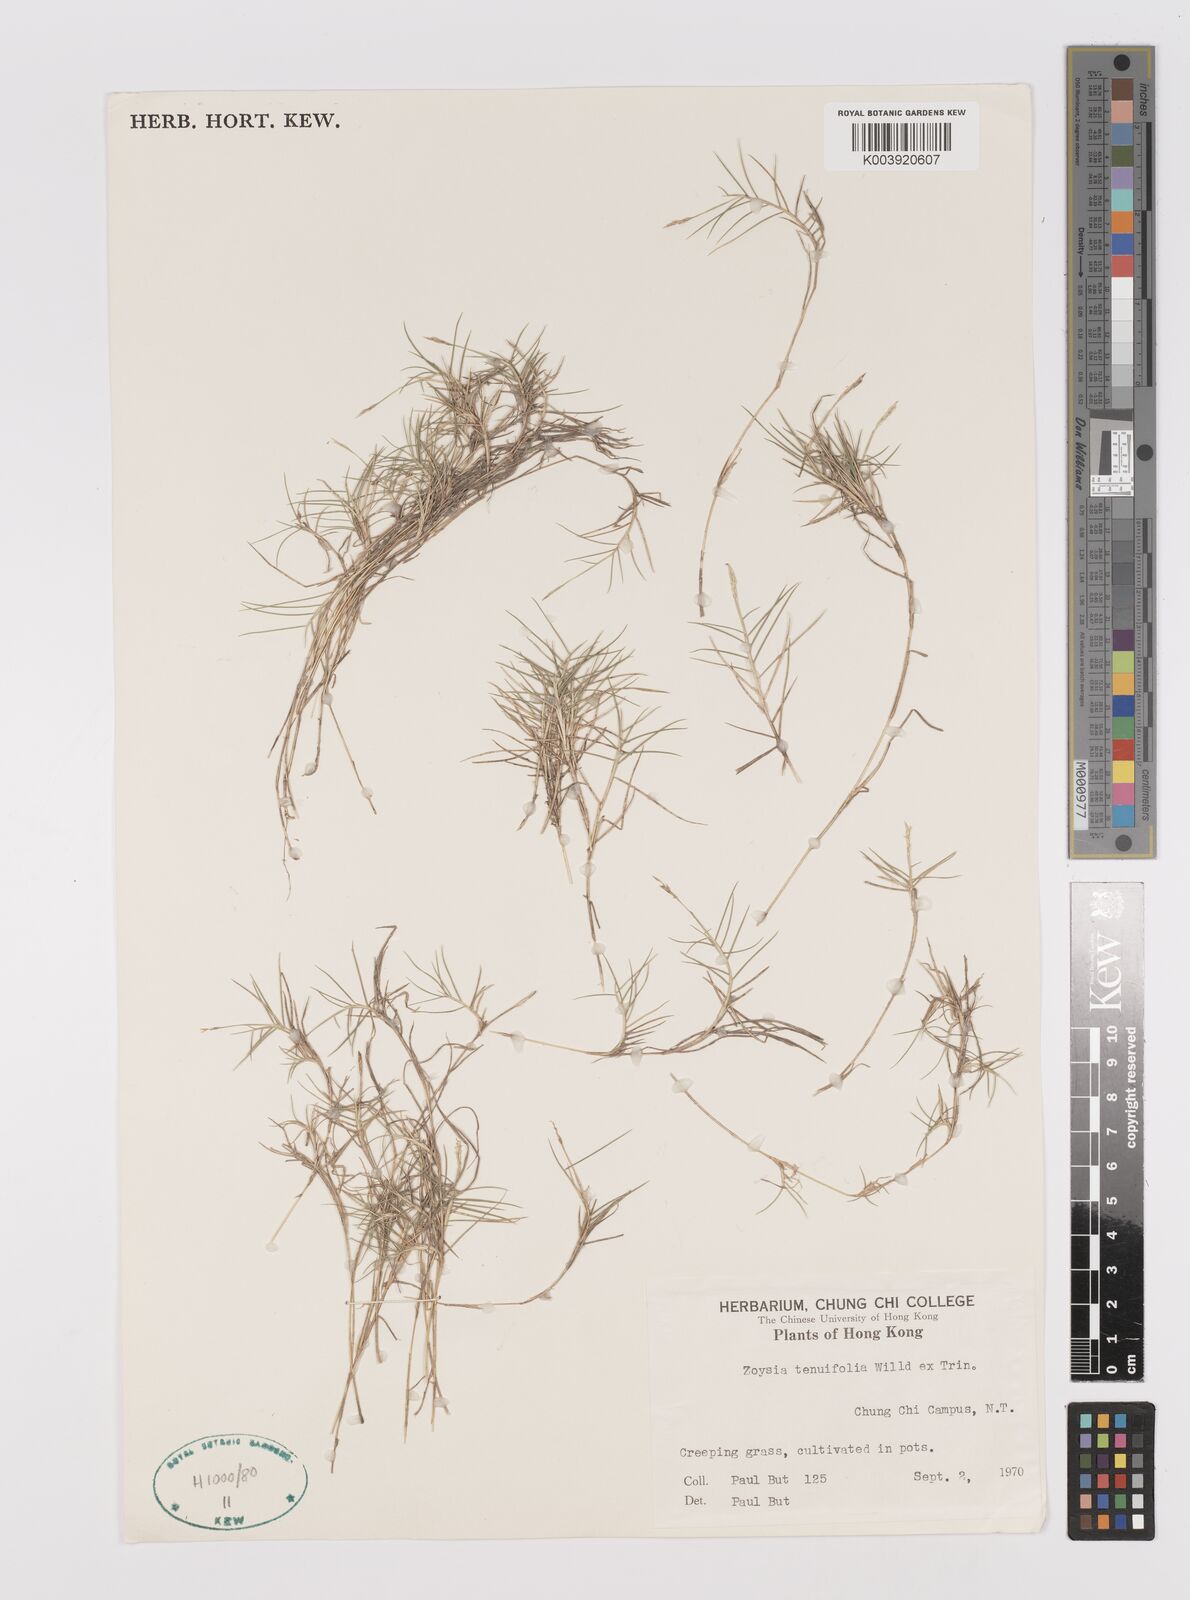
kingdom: Plantae
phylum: Tracheophyta
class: Liliopsida
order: Poales
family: Poaceae
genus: Zoysia
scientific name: Zoysia matrella
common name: Manila grass
